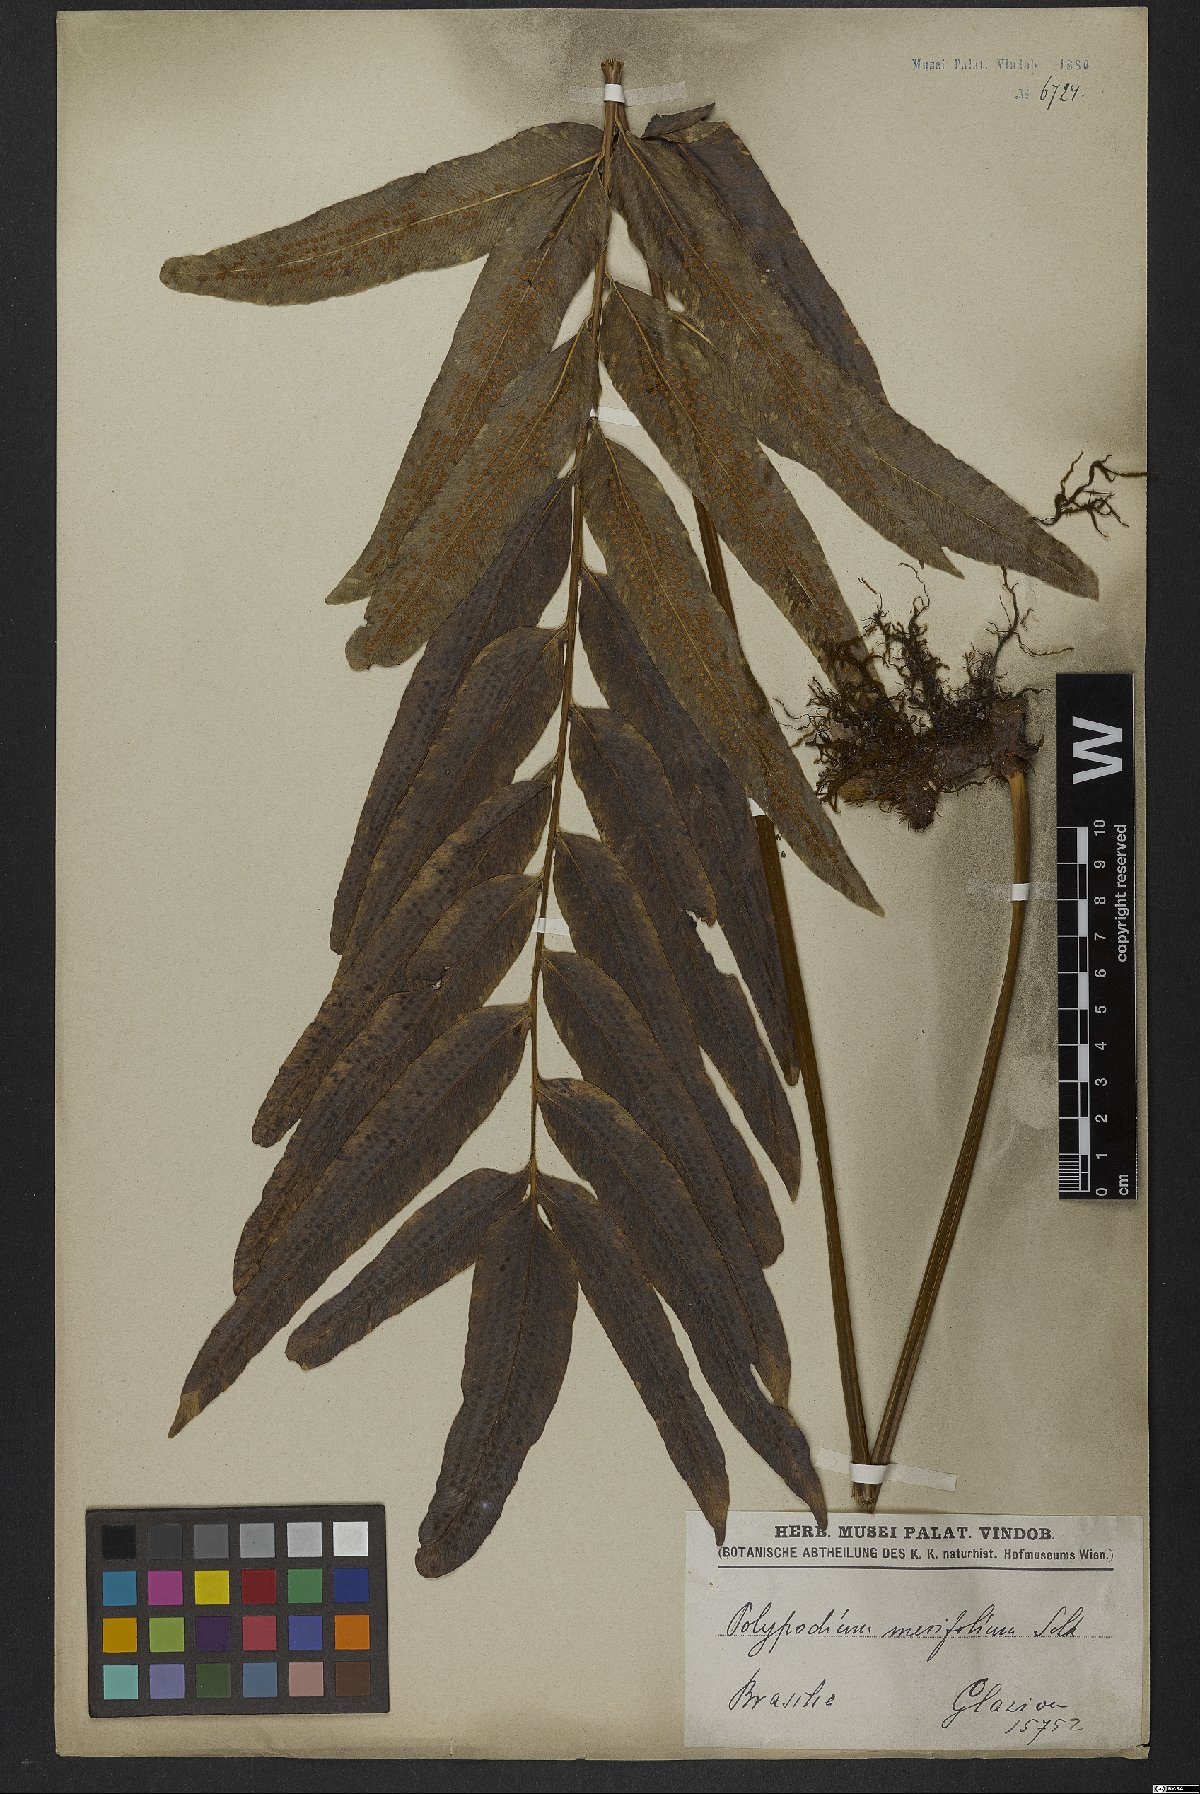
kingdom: Plantae
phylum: Tracheophyta
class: Polypodiopsida
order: Polypodiales
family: Polypodiaceae
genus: Serpocaulon
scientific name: Serpocaulon triseriale
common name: Angle-vein fern
